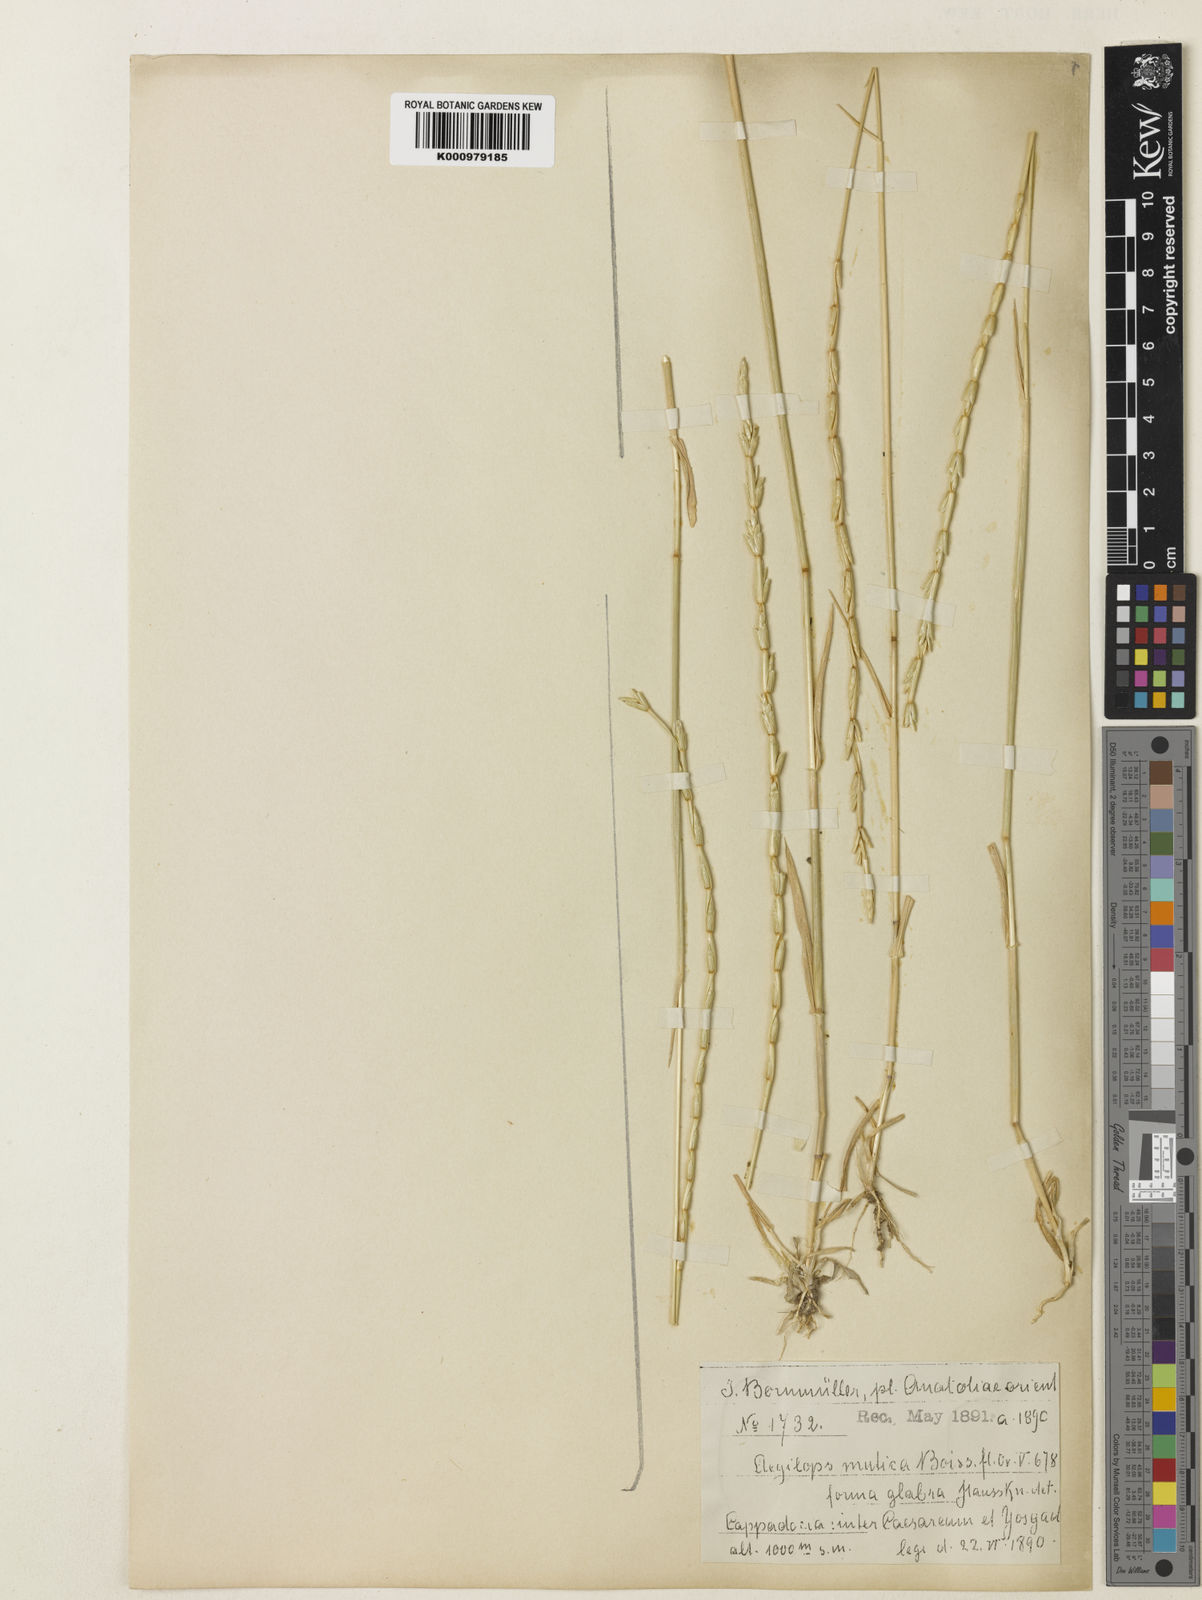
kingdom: Plantae
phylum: Tracheophyta
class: Liliopsida
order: Poales
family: Poaceae
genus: Aegilops
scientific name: Aegilops mutica
